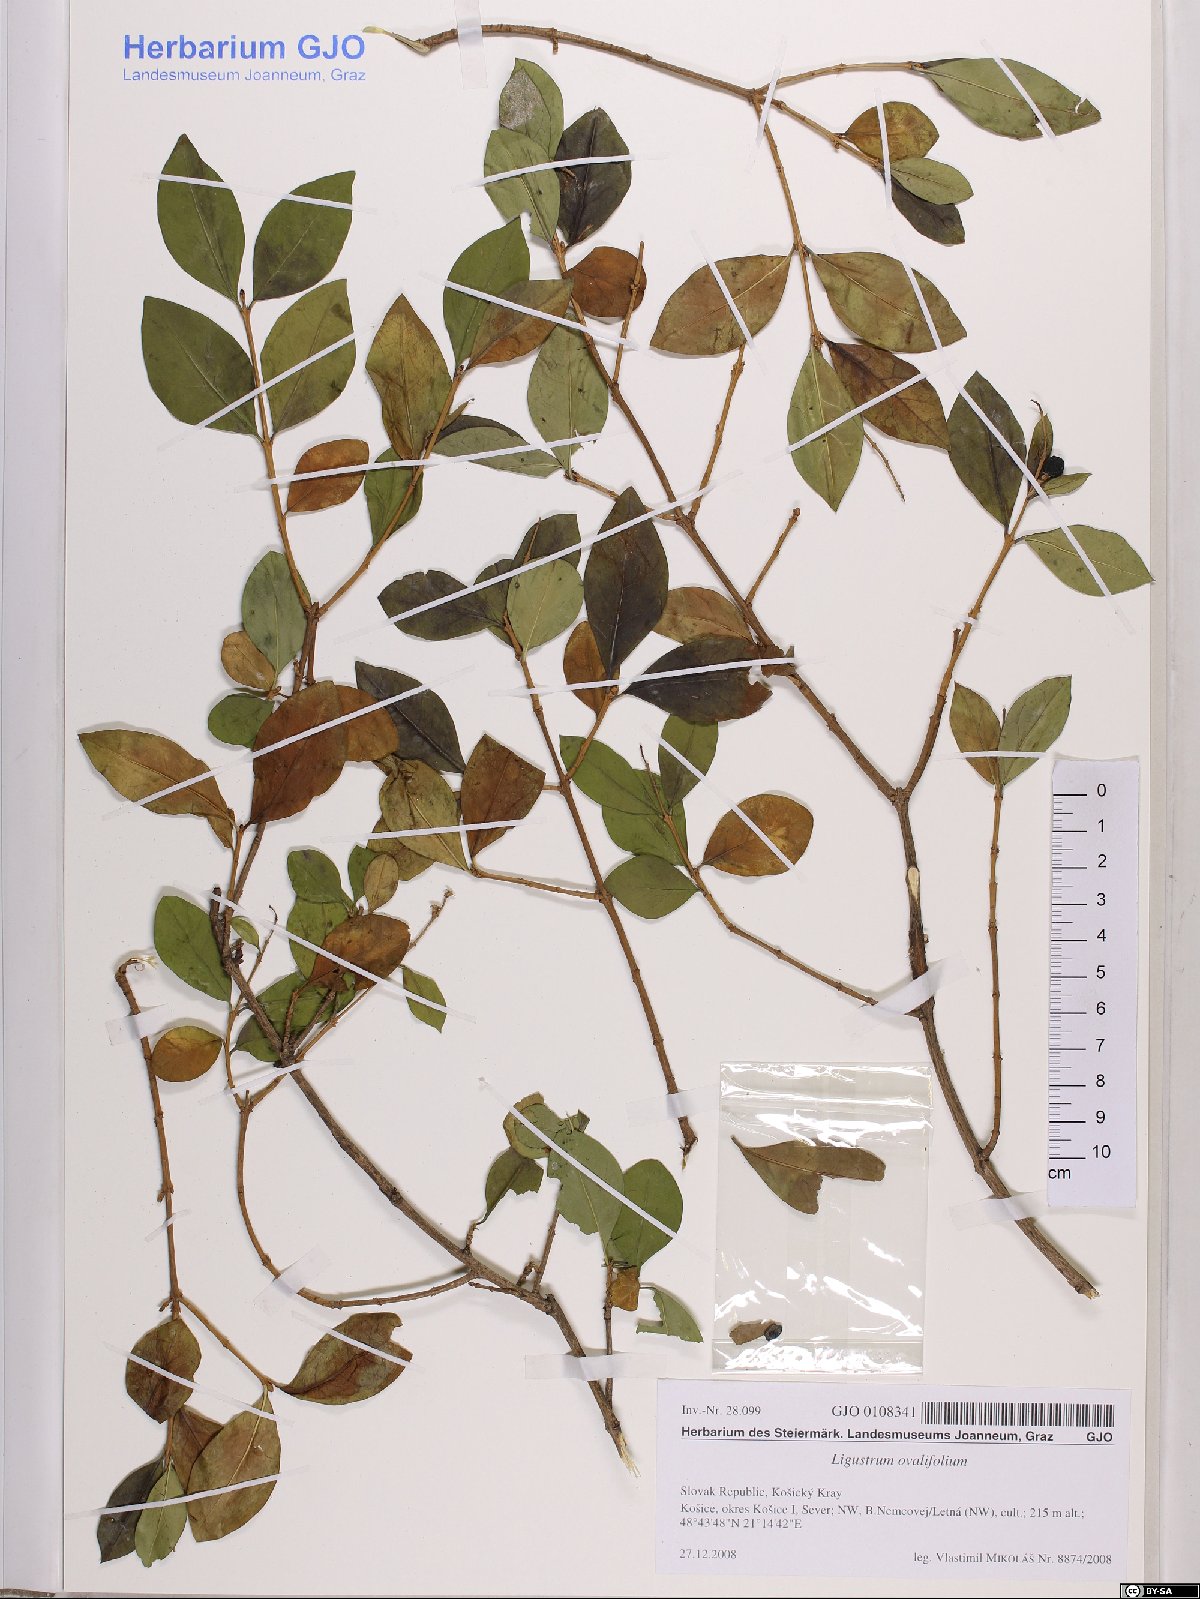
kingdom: Plantae
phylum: Tracheophyta
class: Magnoliopsida
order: Lamiales
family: Oleaceae
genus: Ligustrum
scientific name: Ligustrum ovalifolium
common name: California privet
